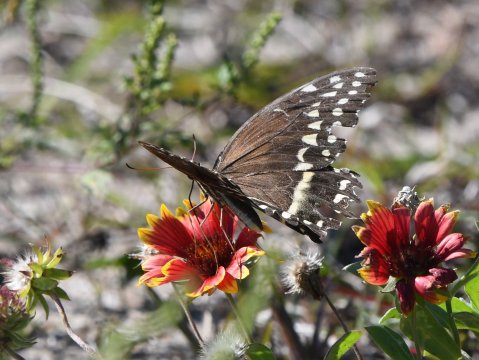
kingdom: Animalia
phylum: Arthropoda
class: Insecta
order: Lepidoptera
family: Papilionidae
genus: Pterourus
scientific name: Pterourus palamedes
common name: Palamedes Swallowtail
